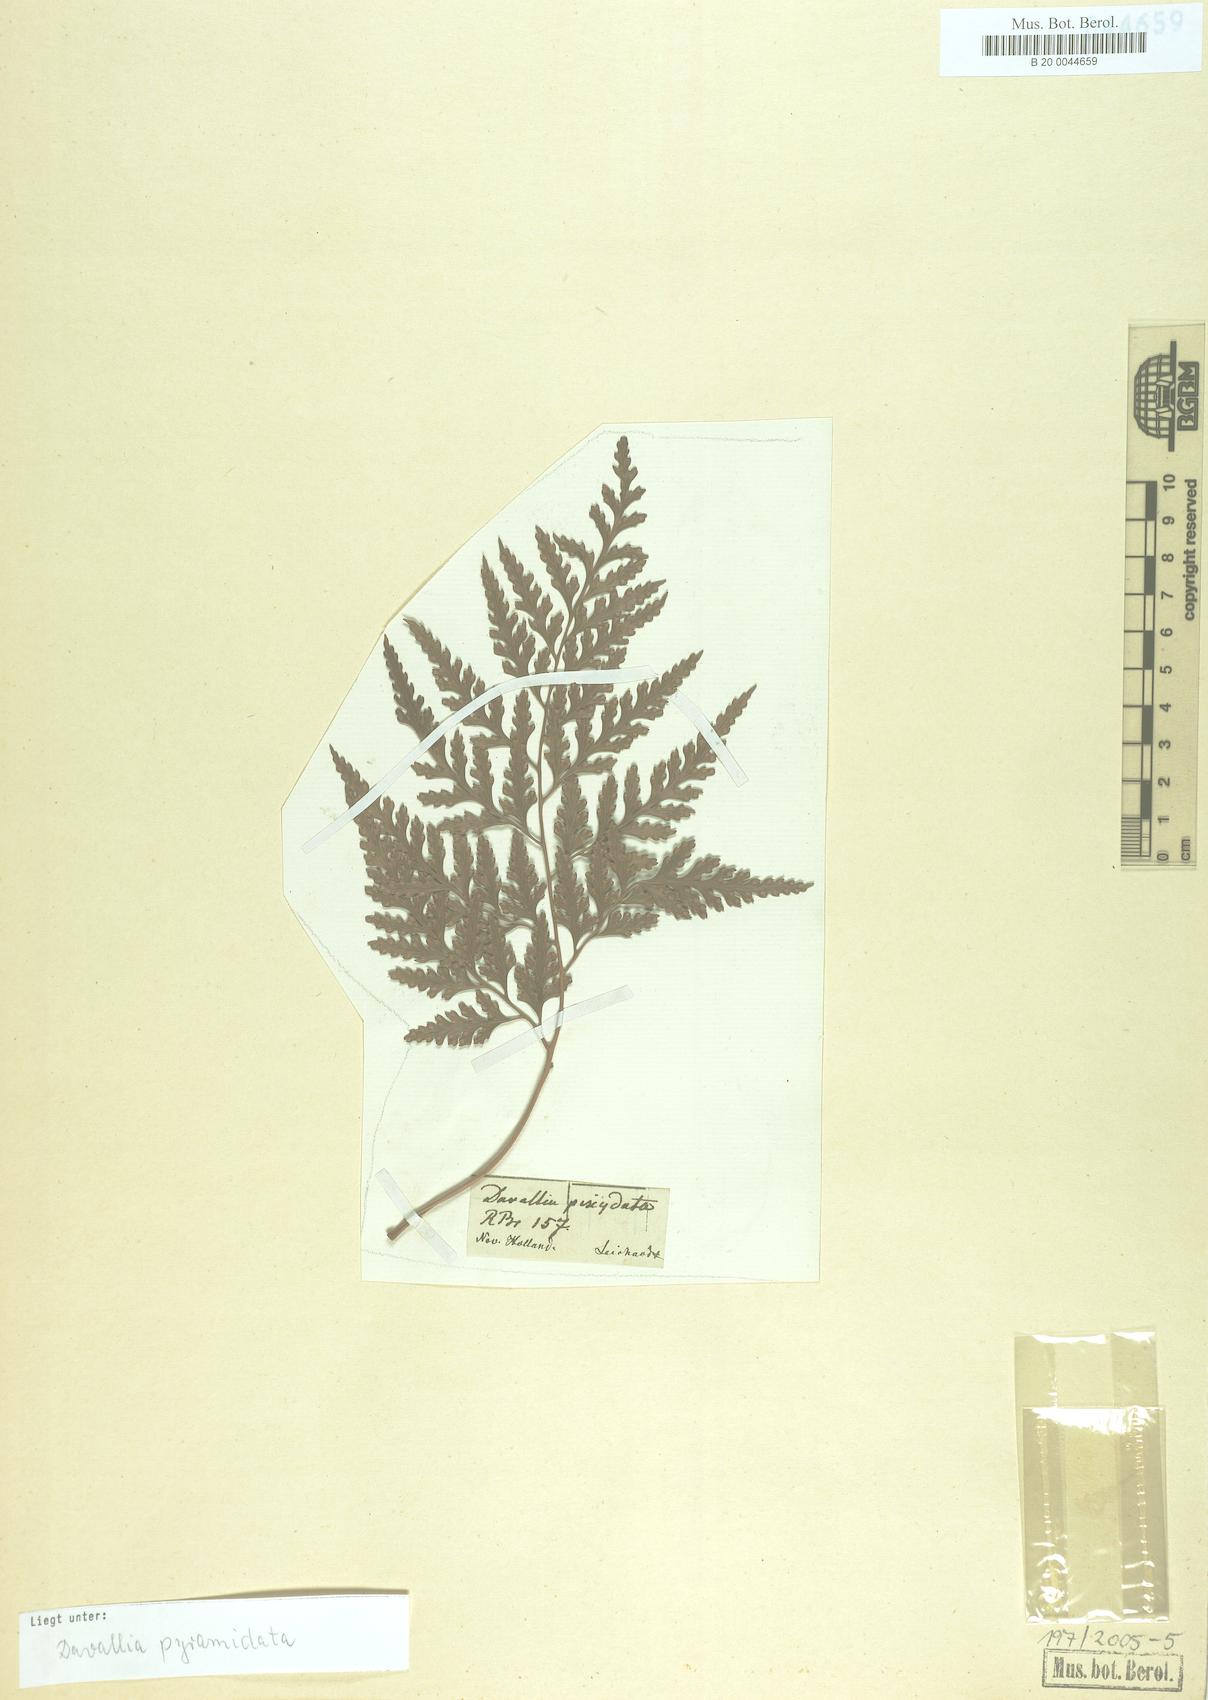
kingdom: Plantae
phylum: Tracheophyta
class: Polypodiopsida
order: Polypodiales
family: Davalliaceae
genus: Davallia
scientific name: Davallia pyxidata
